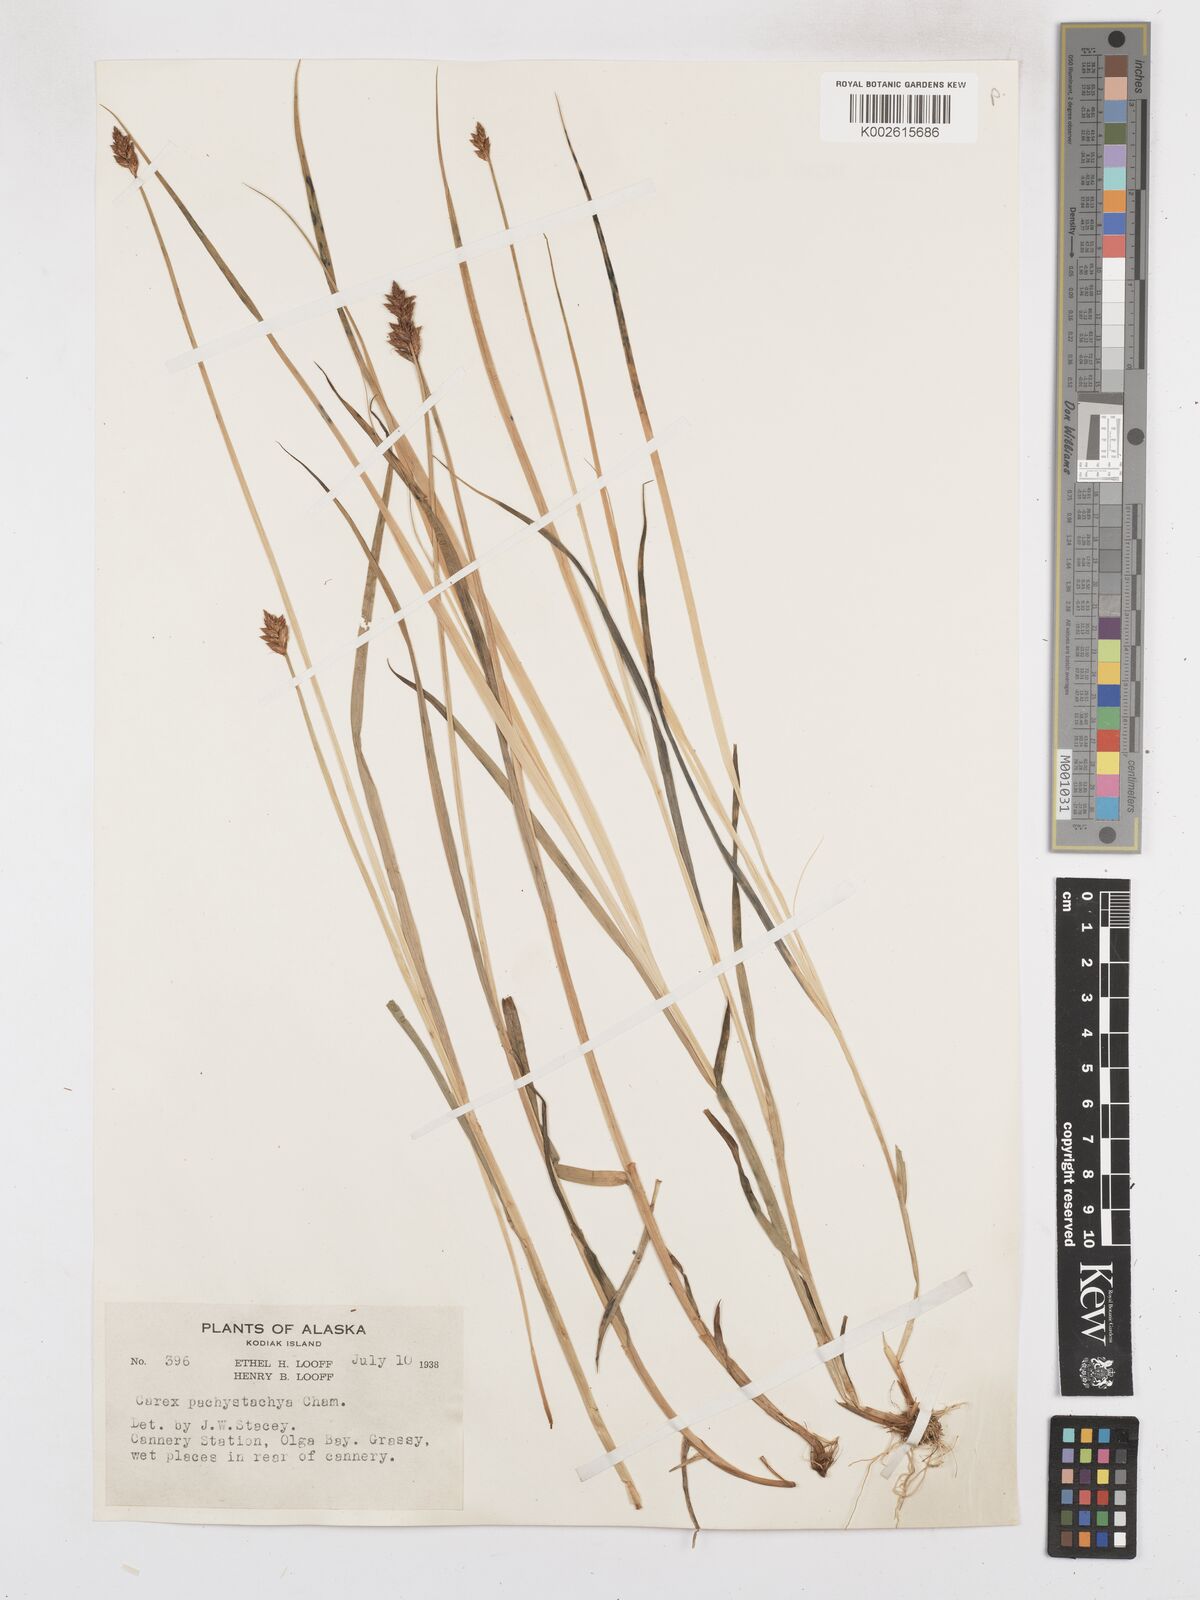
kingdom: Plantae
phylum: Tracheophyta
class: Liliopsida
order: Poales
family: Cyperaceae
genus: Carex
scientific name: Carex pachystachya
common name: Chamisso's sedge
